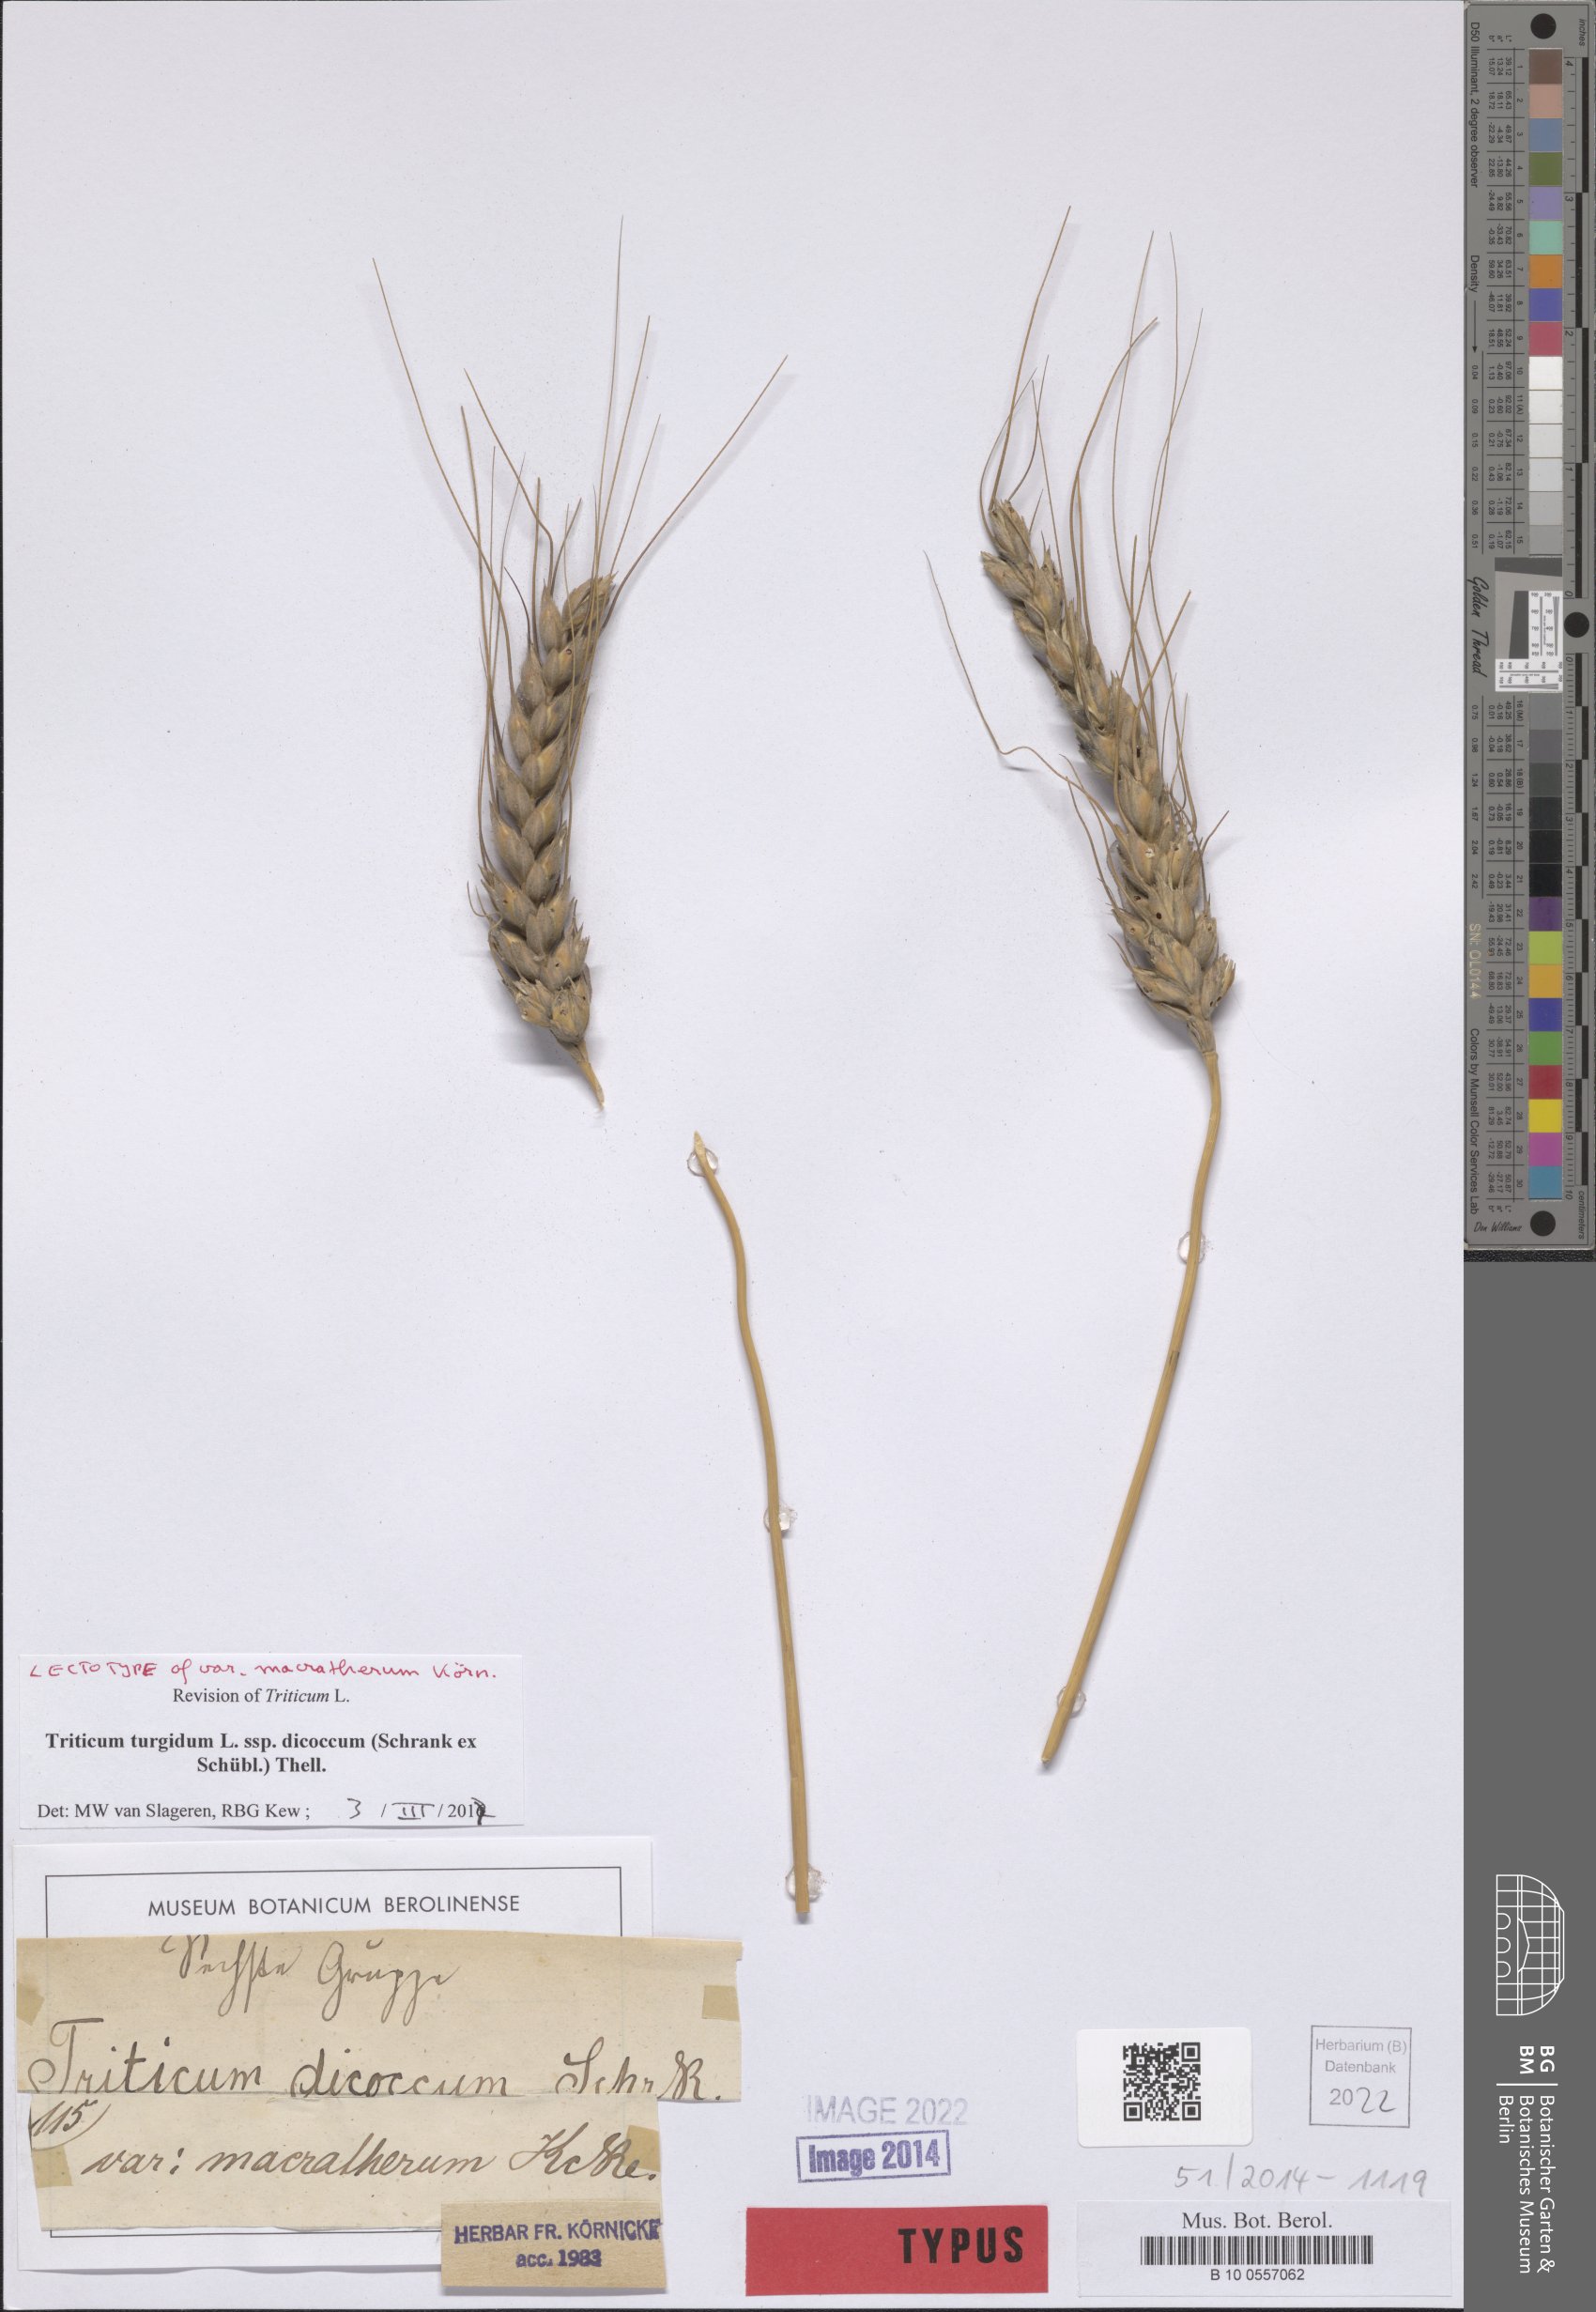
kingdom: Plantae
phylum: Tracheophyta
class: Liliopsida
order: Poales
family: Poaceae
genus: Triticum
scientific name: Triticum turgidum
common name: Rivet wheat
